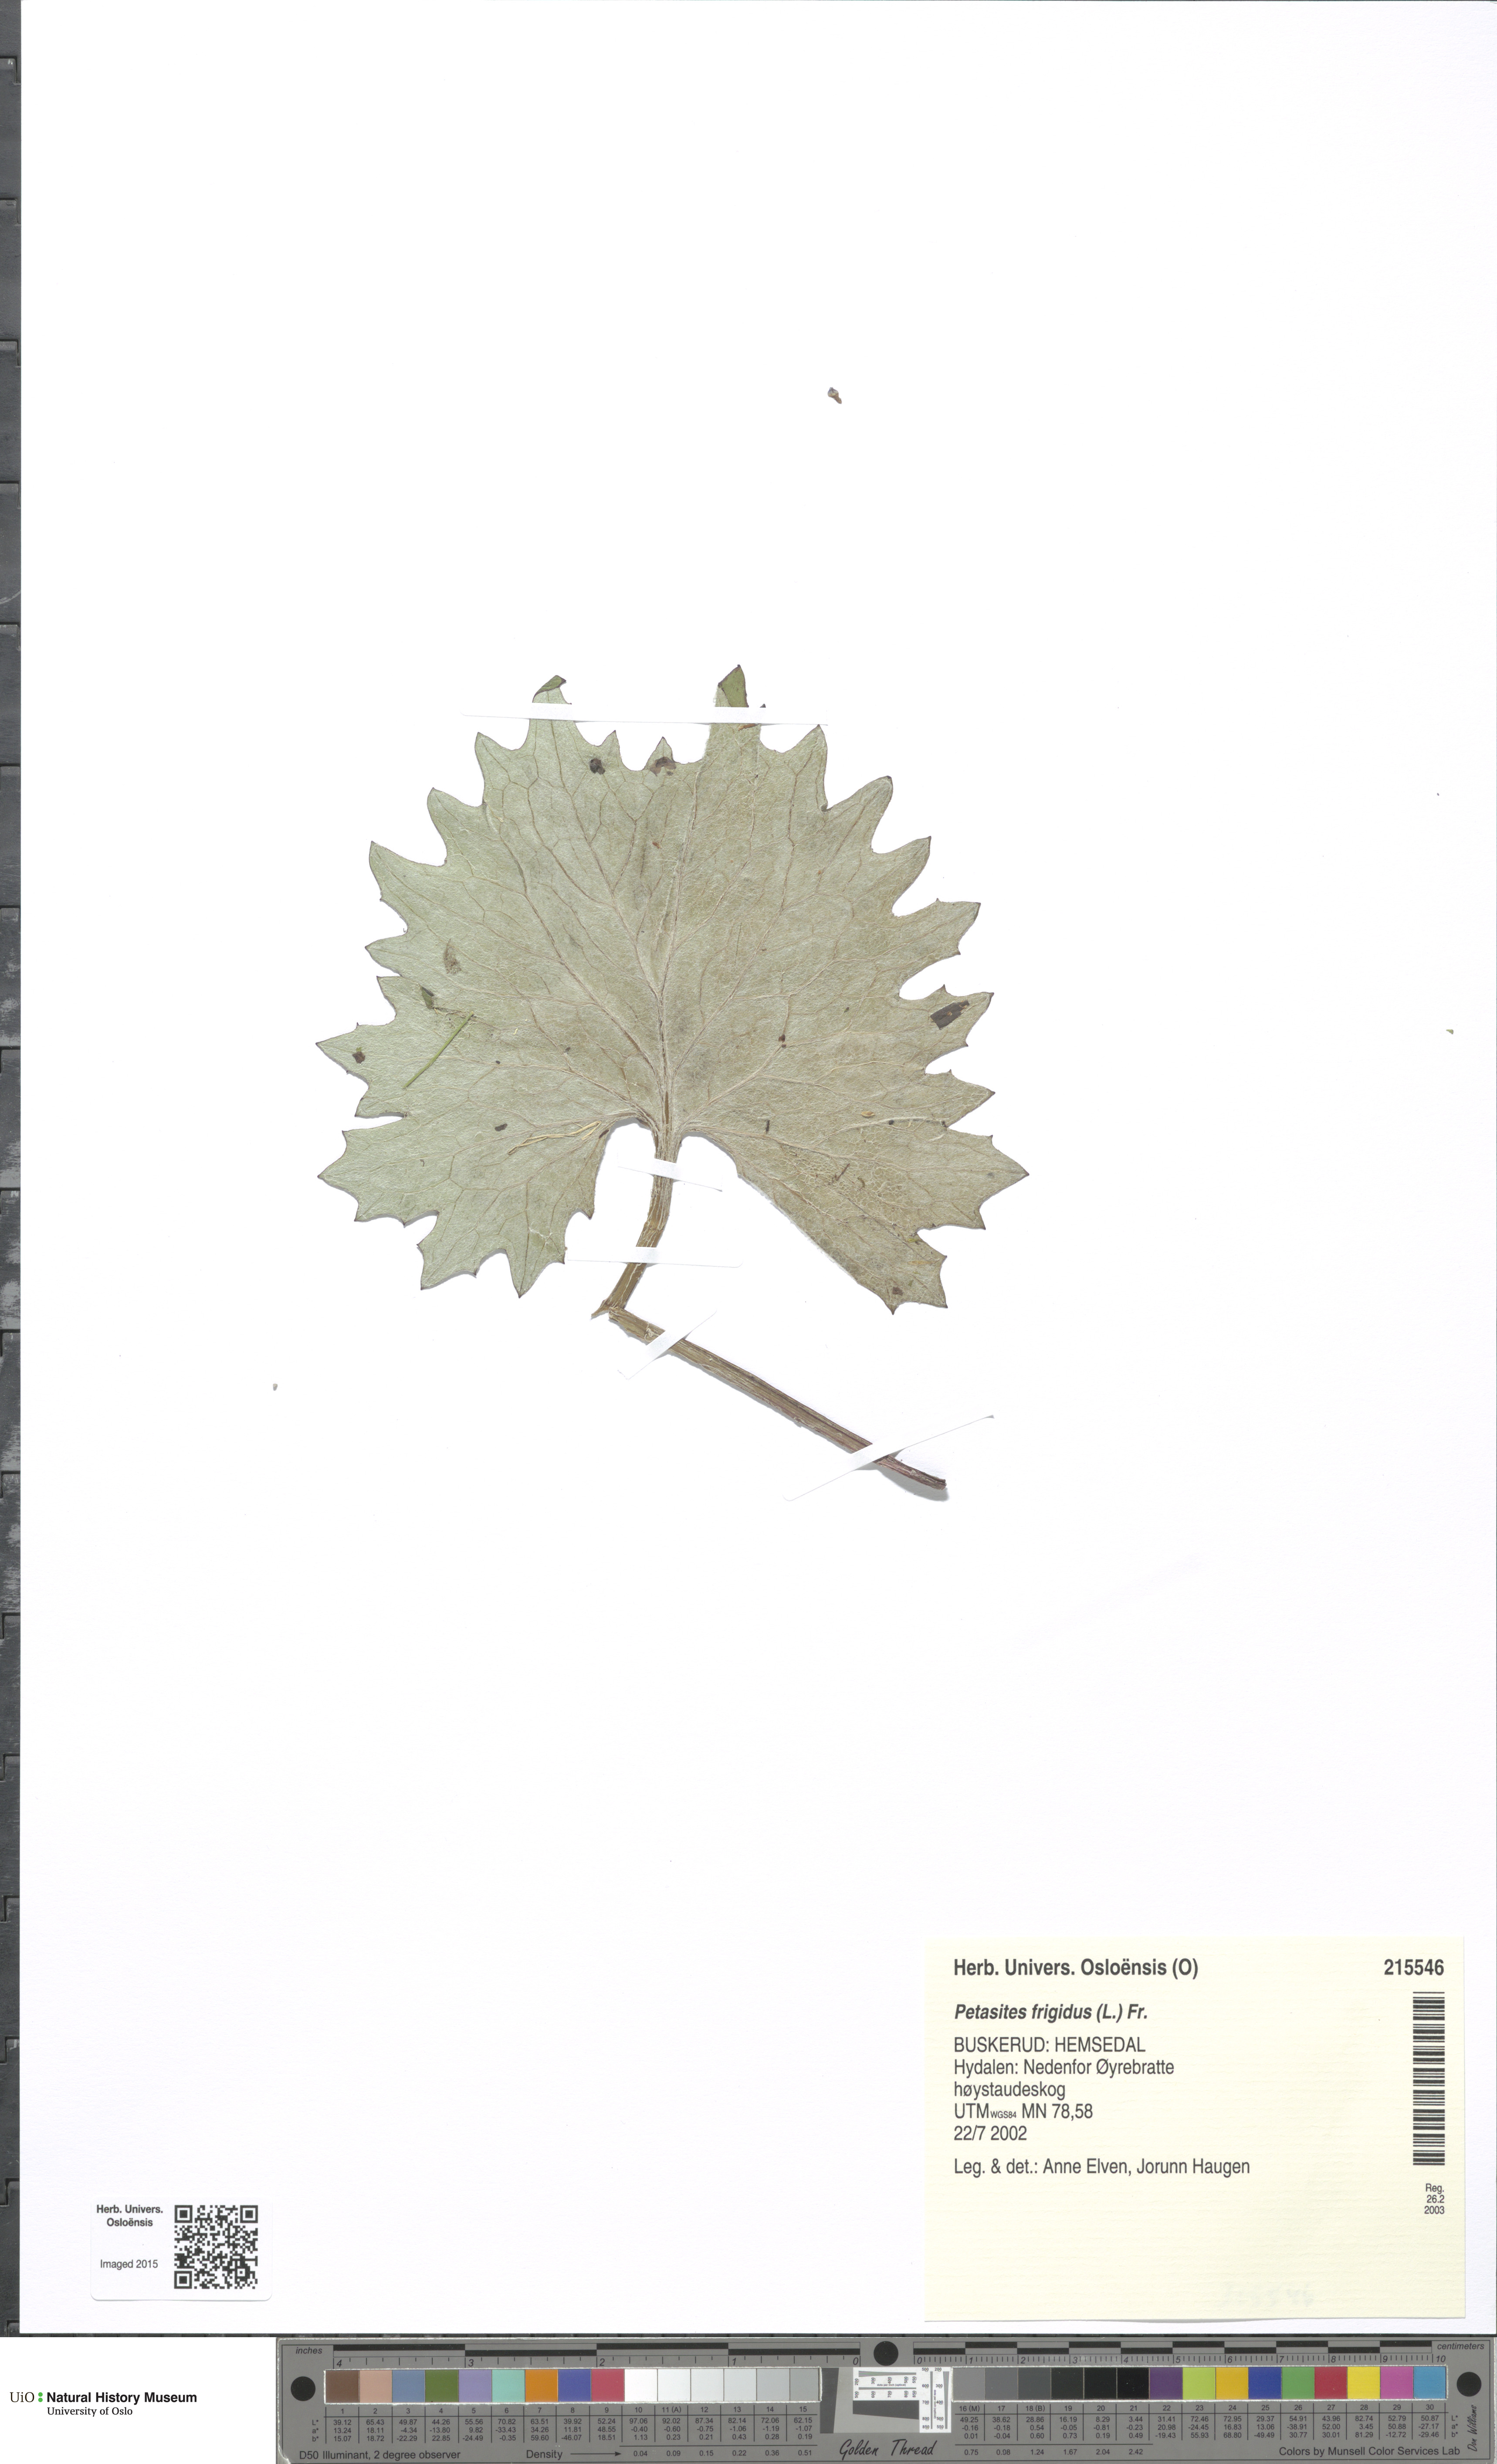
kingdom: Plantae
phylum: Tracheophyta
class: Magnoliopsida
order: Asterales
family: Asteraceae
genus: Petasites
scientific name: Petasites frigidus
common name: Arctic butterbur
